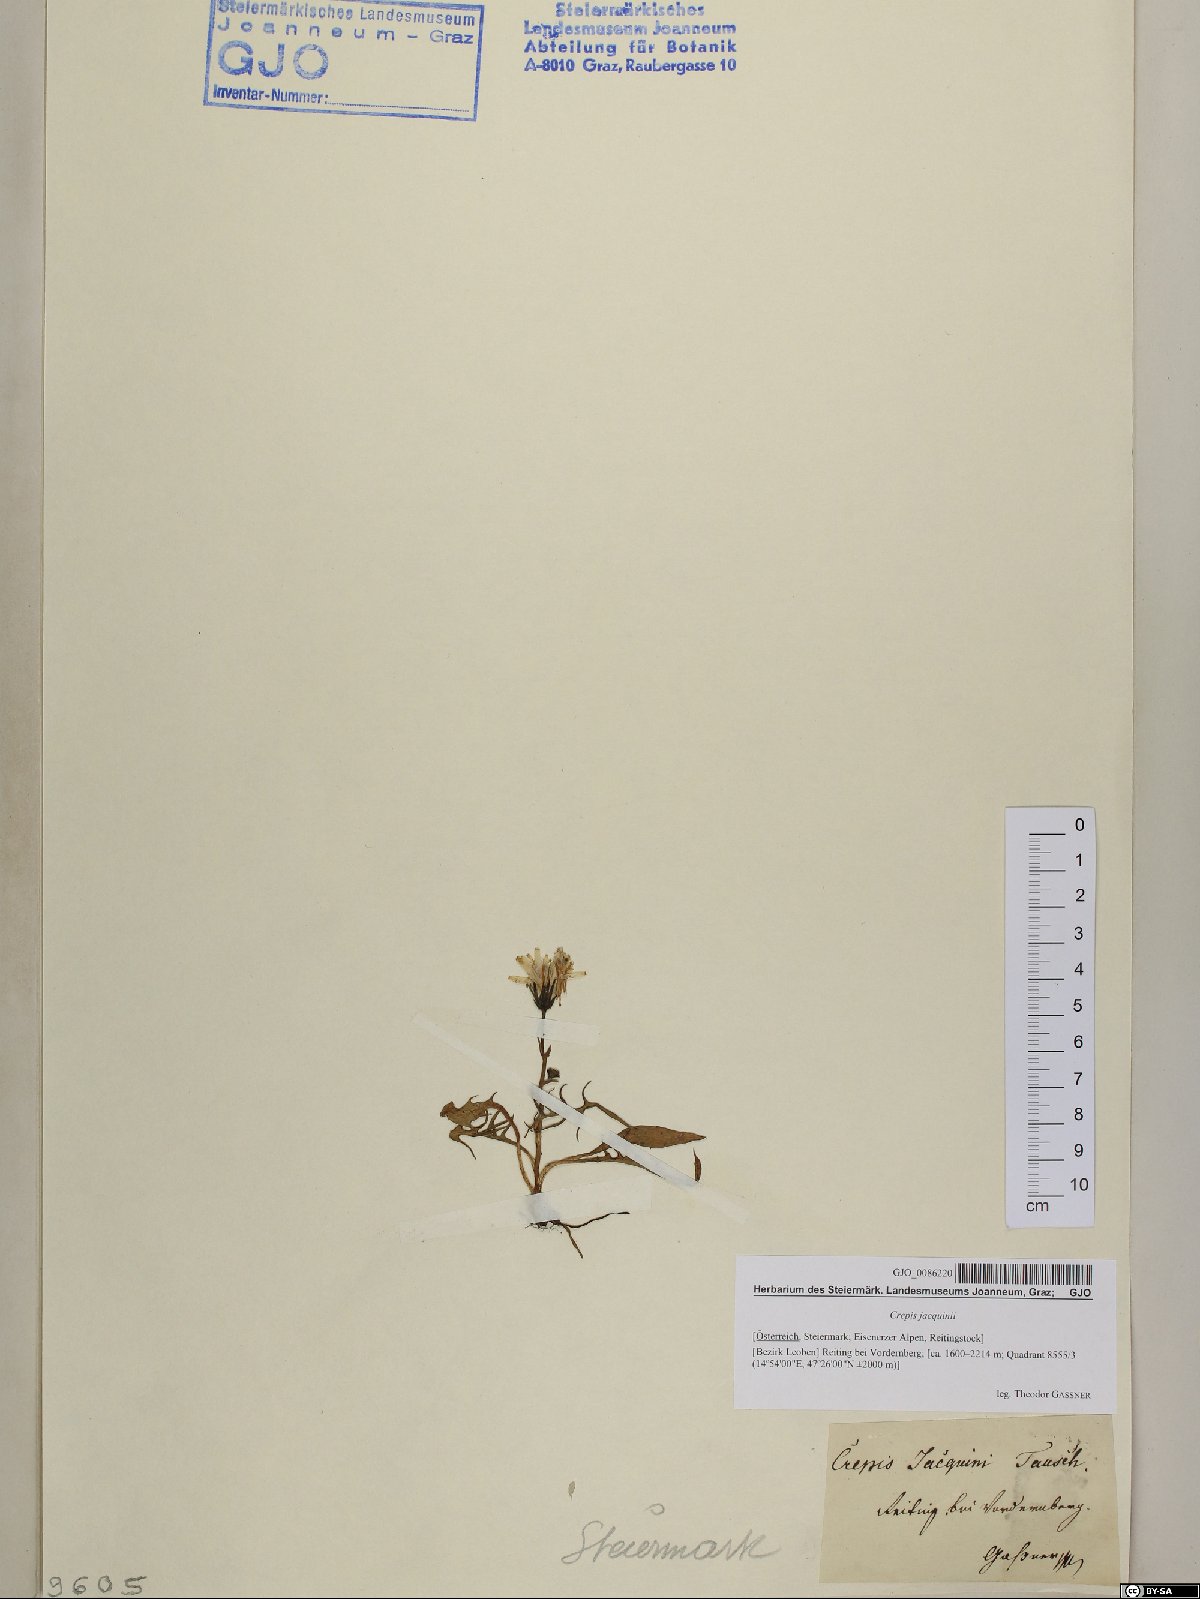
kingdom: Plantae
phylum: Tracheophyta
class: Magnoliopsida
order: Asterales
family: Asteraceae
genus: Crepis
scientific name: Crepis jacquinii
